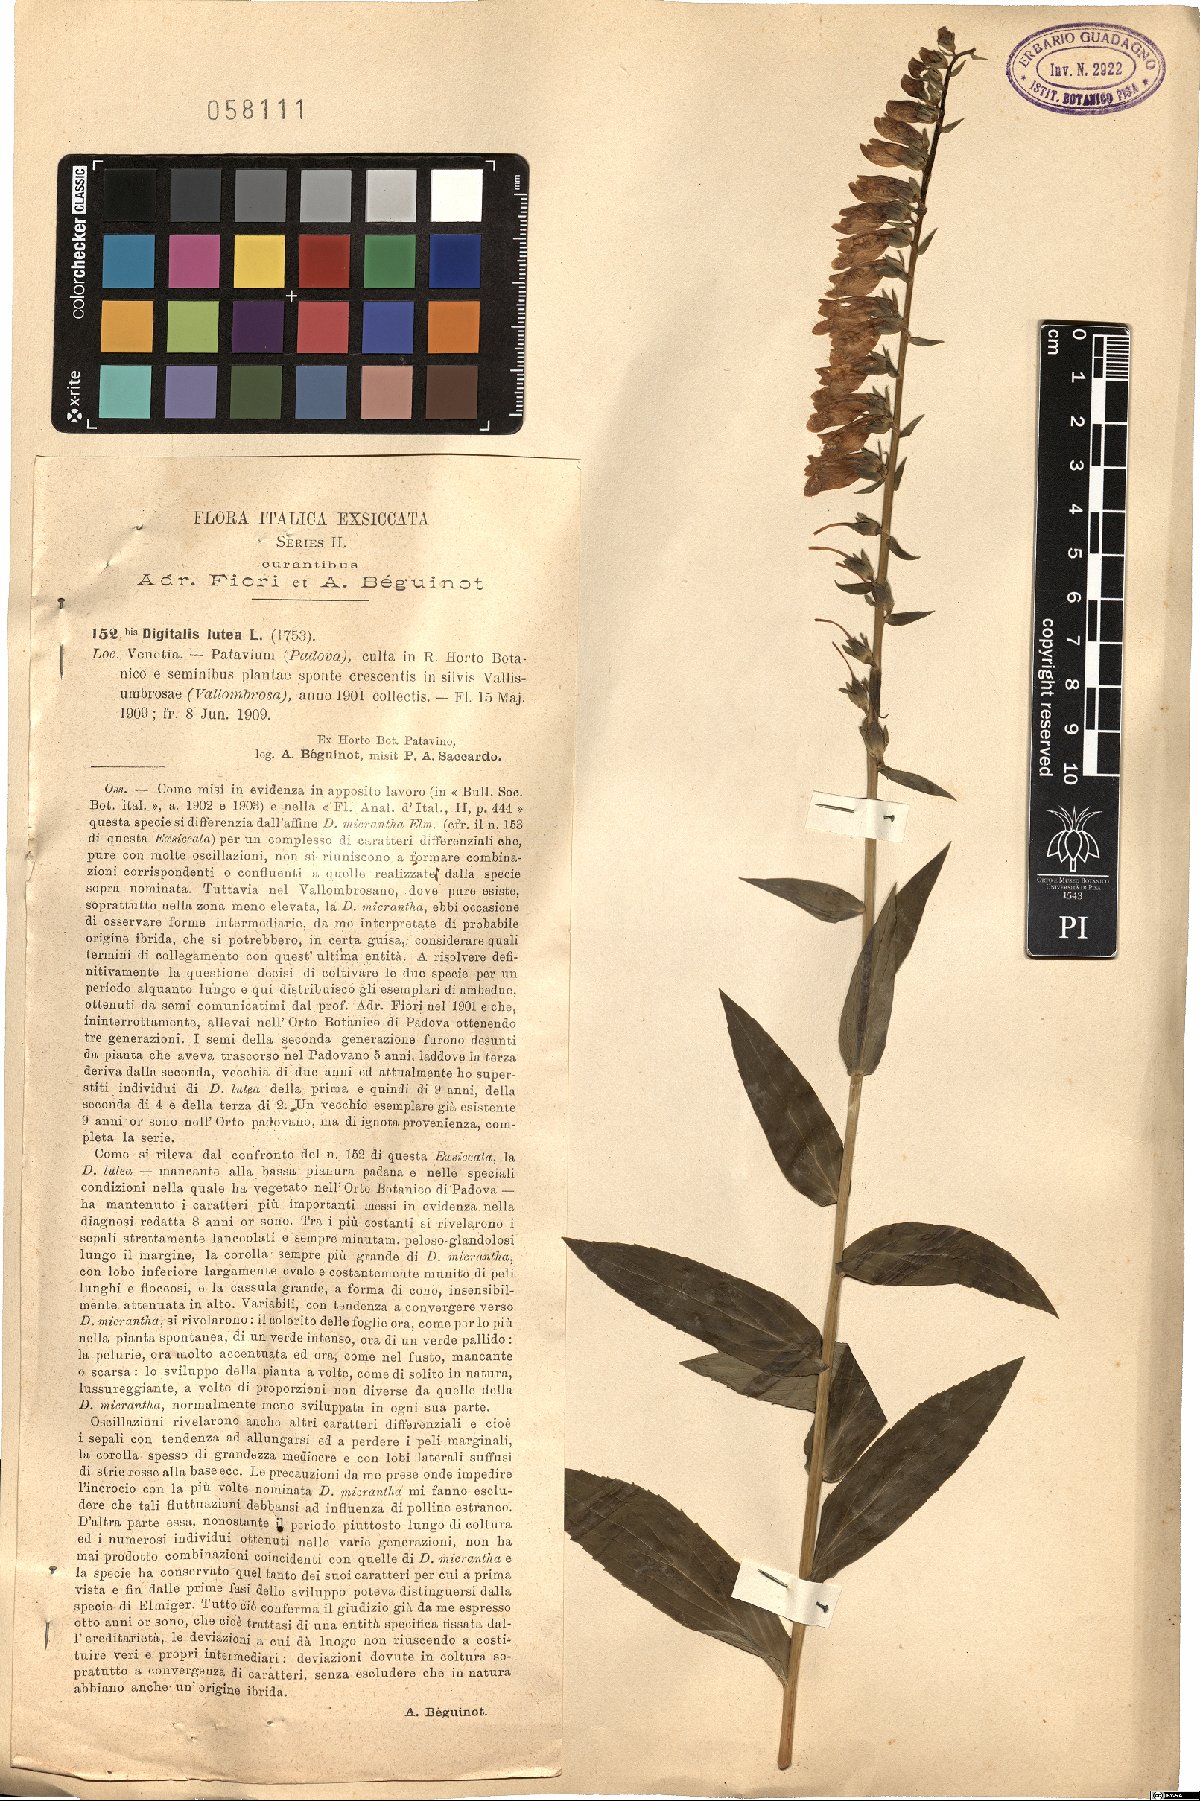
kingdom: Plantae
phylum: Tracheophyta
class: Magnoliopsida
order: Lamiales
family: Plantaginaceae
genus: Digitalis
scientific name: Digitalis lutea
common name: Straw foxglove
